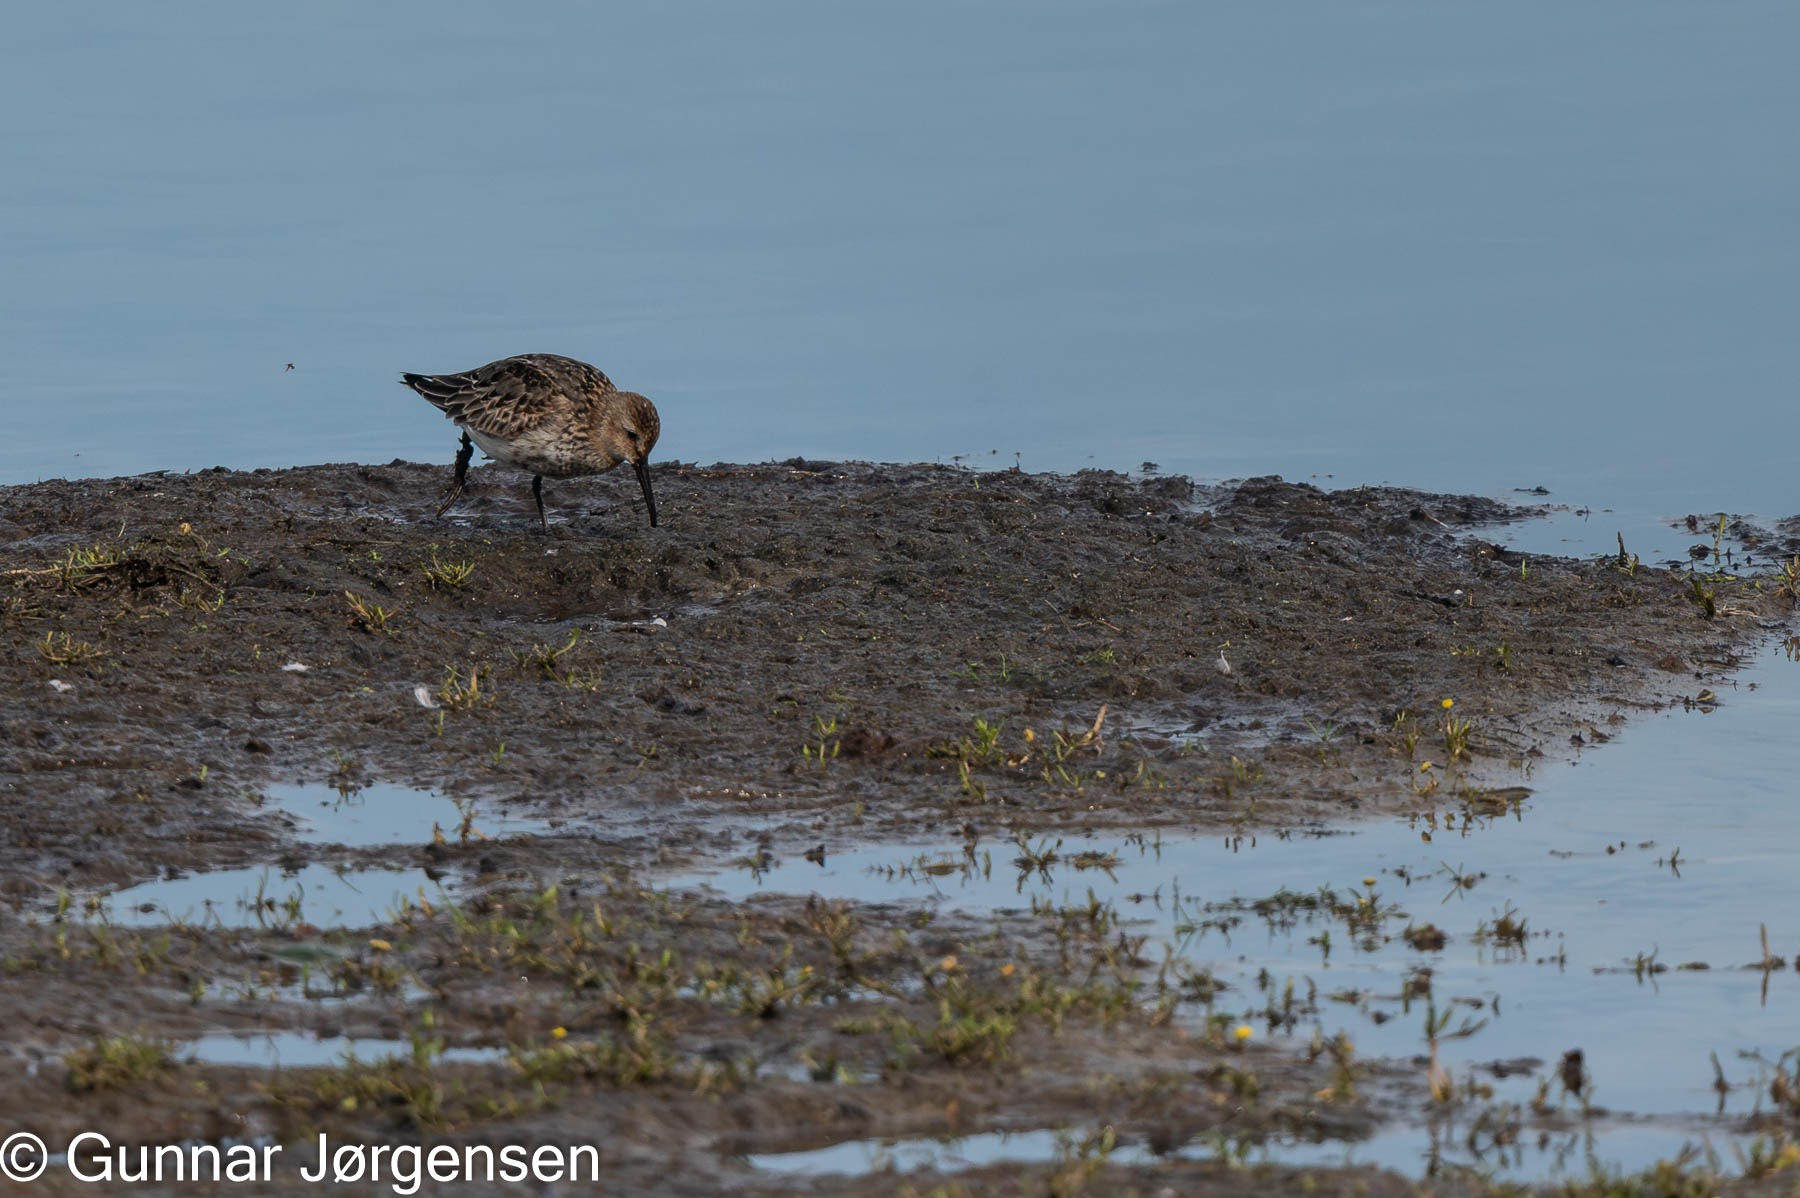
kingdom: Animalia
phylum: Chordata
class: Aves
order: Charadriiformes
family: Scolopacidae
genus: Calidris
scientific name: Calidris alpina
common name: Almindelig ryle
